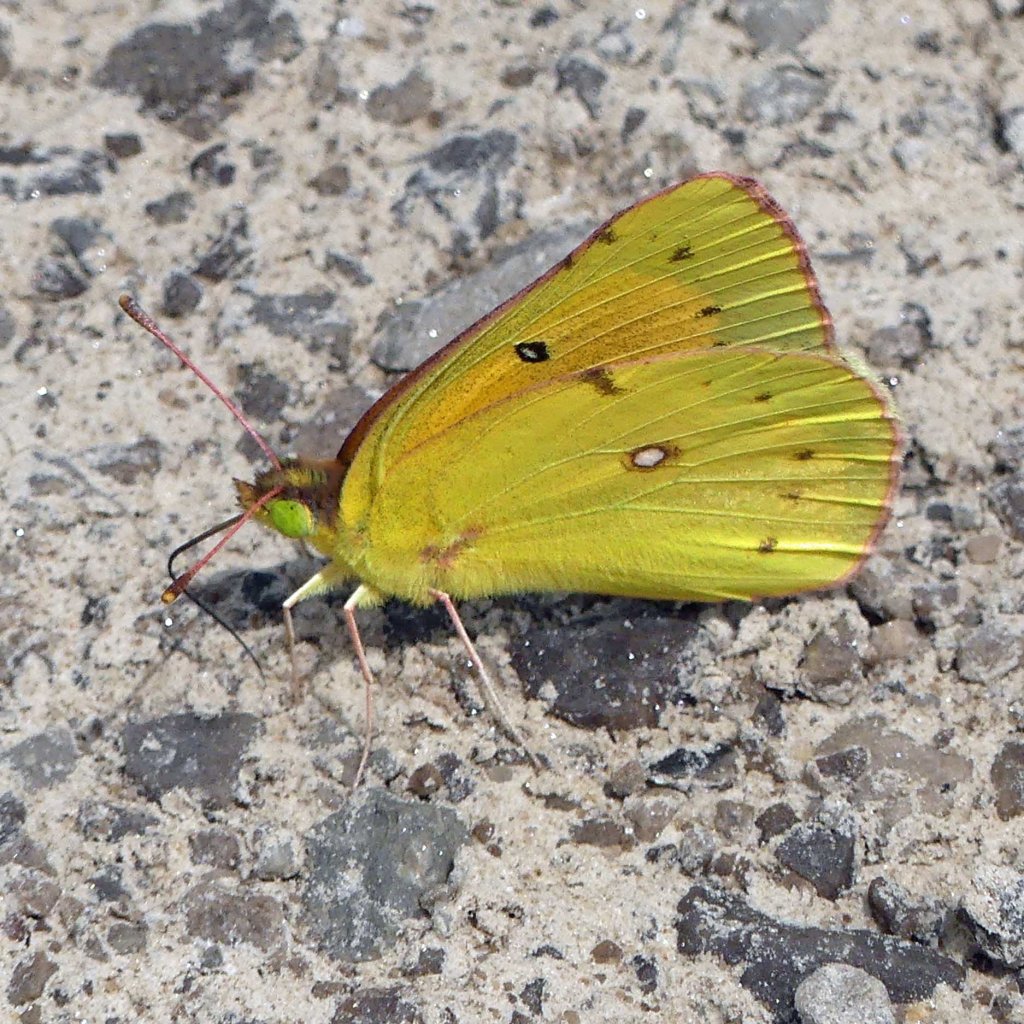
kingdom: Animalia
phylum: Arthropoda
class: Insecta
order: Lepidoptera
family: Pieridae
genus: Colias
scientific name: Colias eurytheme
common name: Orange Sulphur
